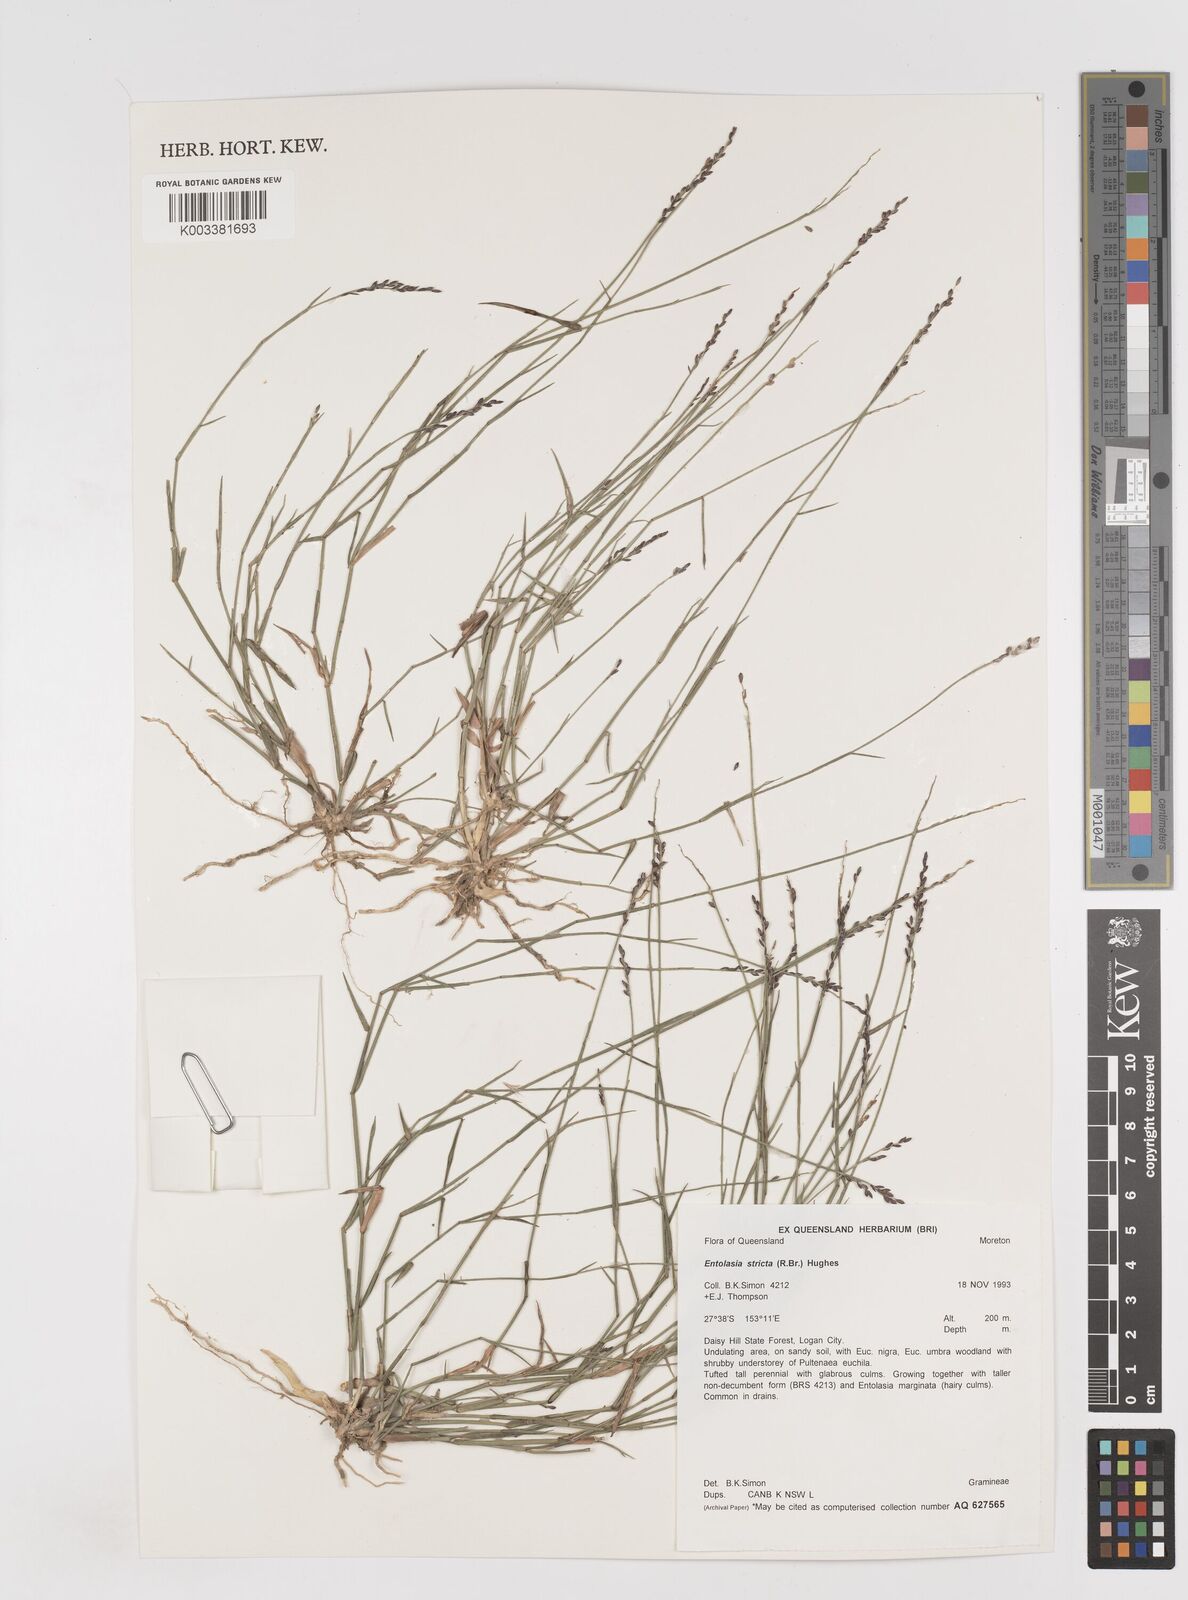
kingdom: Plantae
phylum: Tracheophyta
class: Liliopsida
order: Poales
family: Poaceae
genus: Entolasia
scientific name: Entolasia stricta
